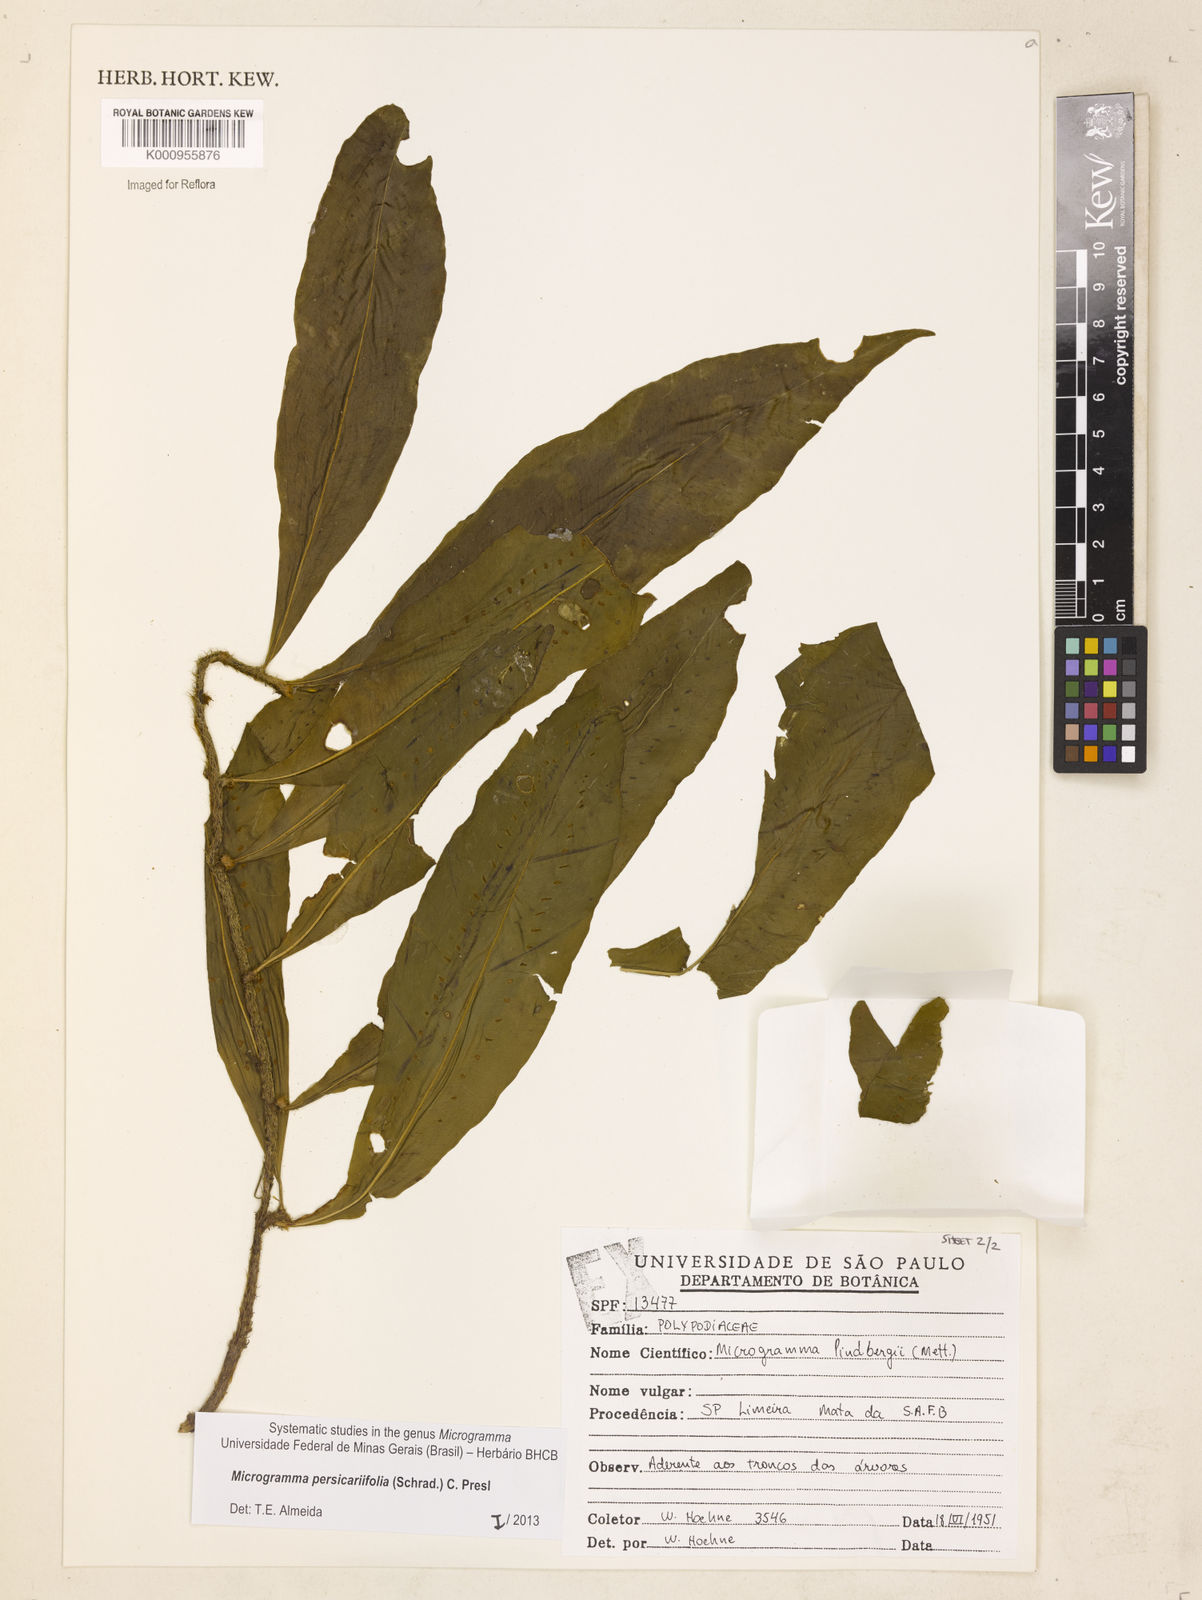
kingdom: Plantae
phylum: Tracheophyta
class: Polypodiopsida
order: Polypodiales
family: Polypodiaceae
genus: Microgramma
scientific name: Microgramma persicariifolia
